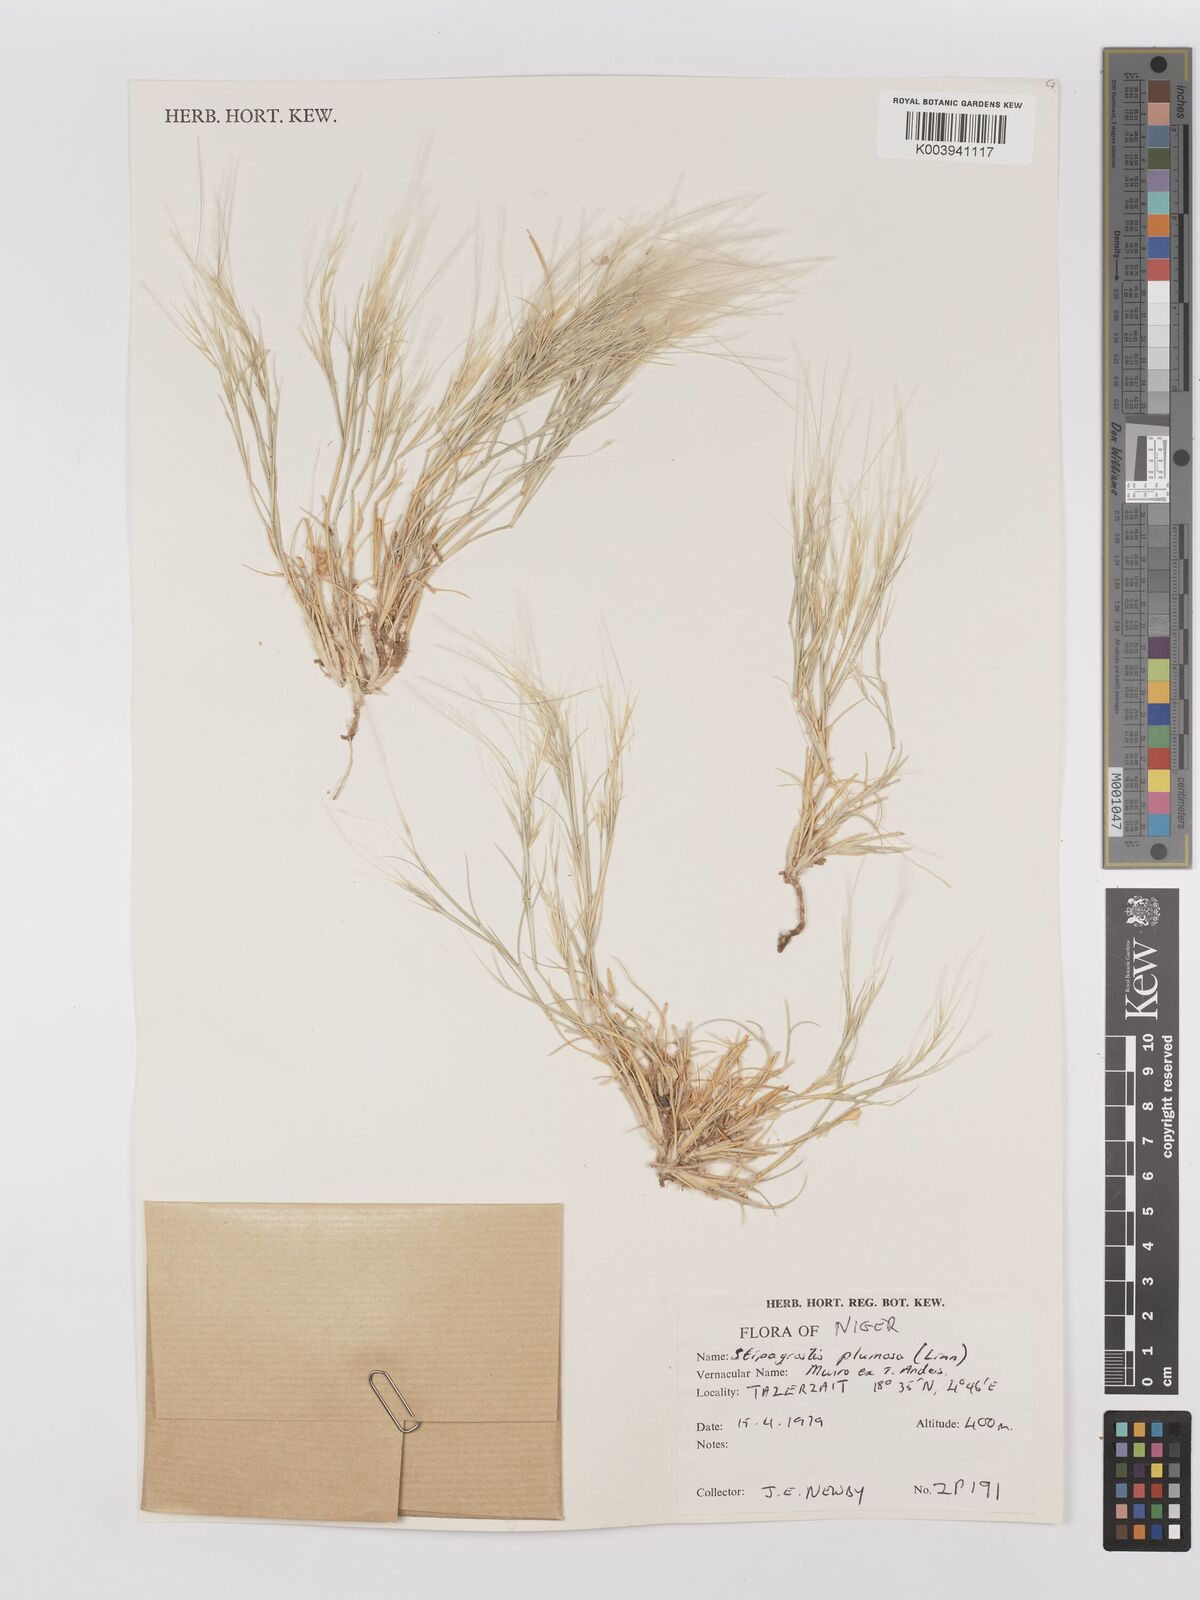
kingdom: Plantae
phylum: Tracheophyta
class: Liliopsida
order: Poales
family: Poaceae
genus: Stipagrostis
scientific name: Stipagrostis plumosa
